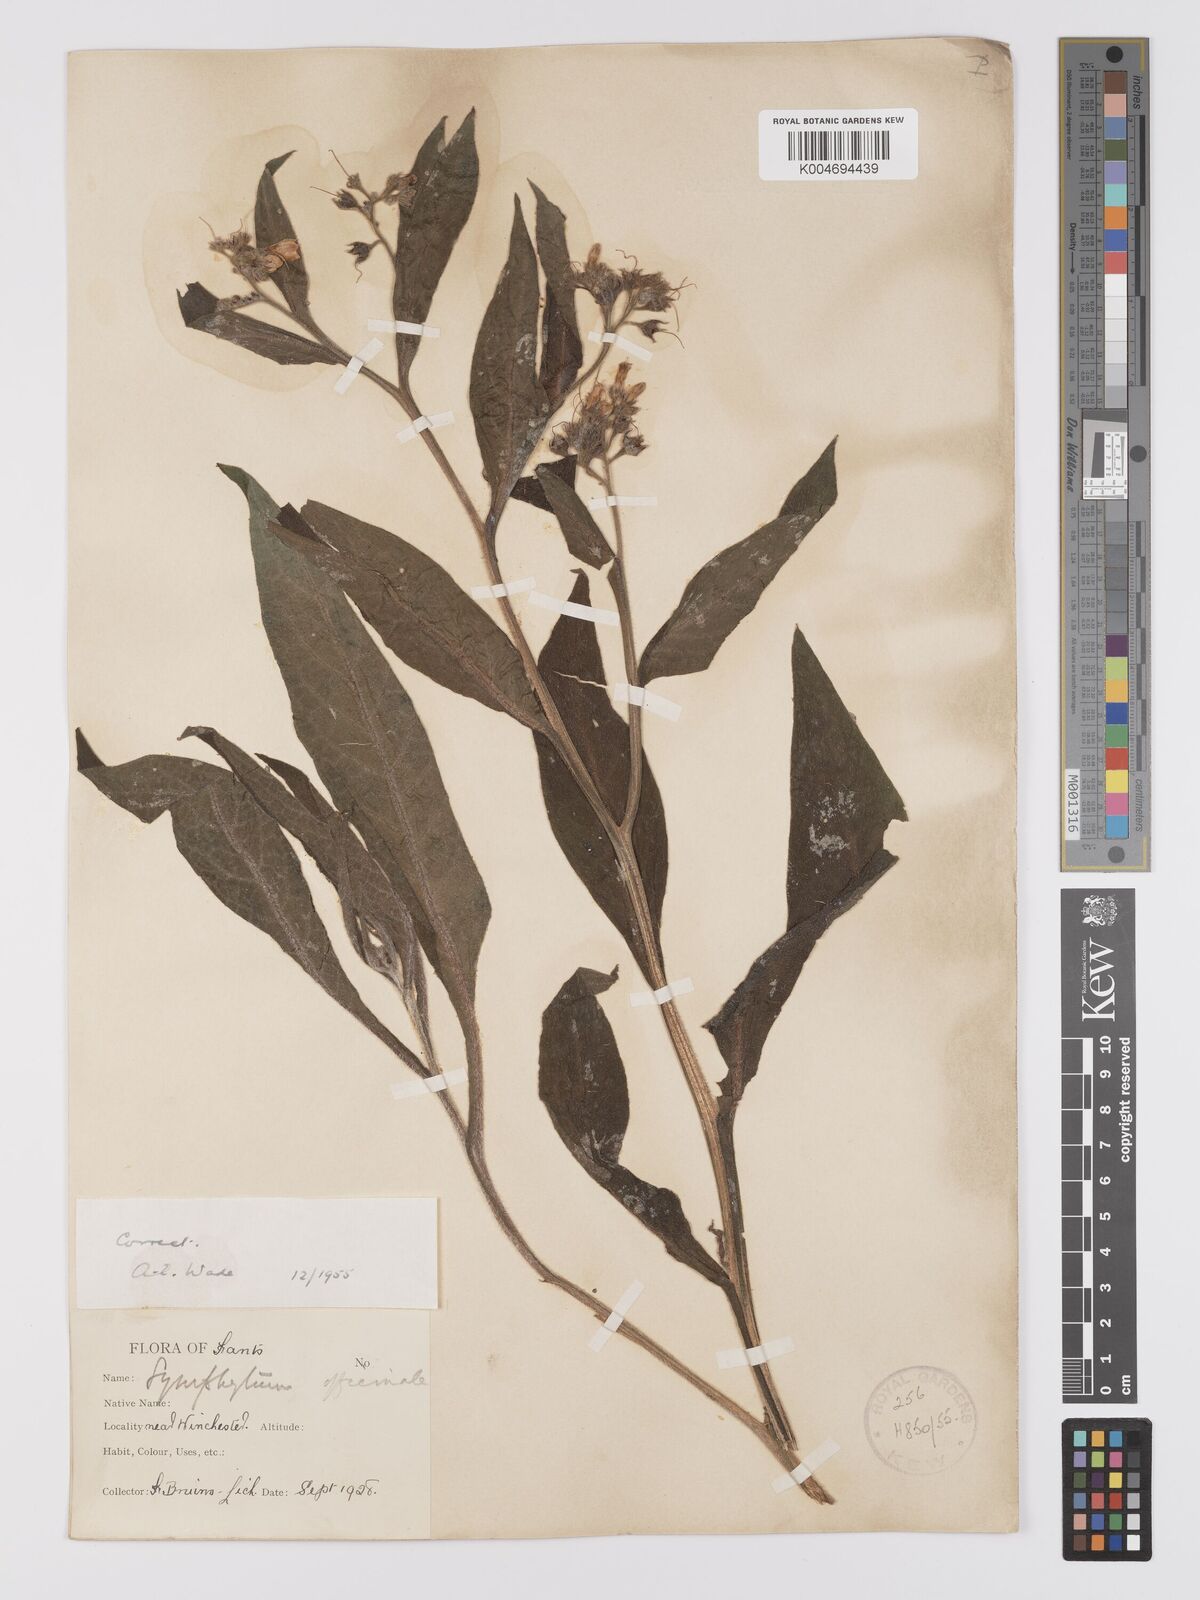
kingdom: Plantae
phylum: Tracheophyta
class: Magnoliopsida
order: Boraginales
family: Boraginaceae
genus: Symphytum
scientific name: Symphytum officinale
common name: Common comfrey
